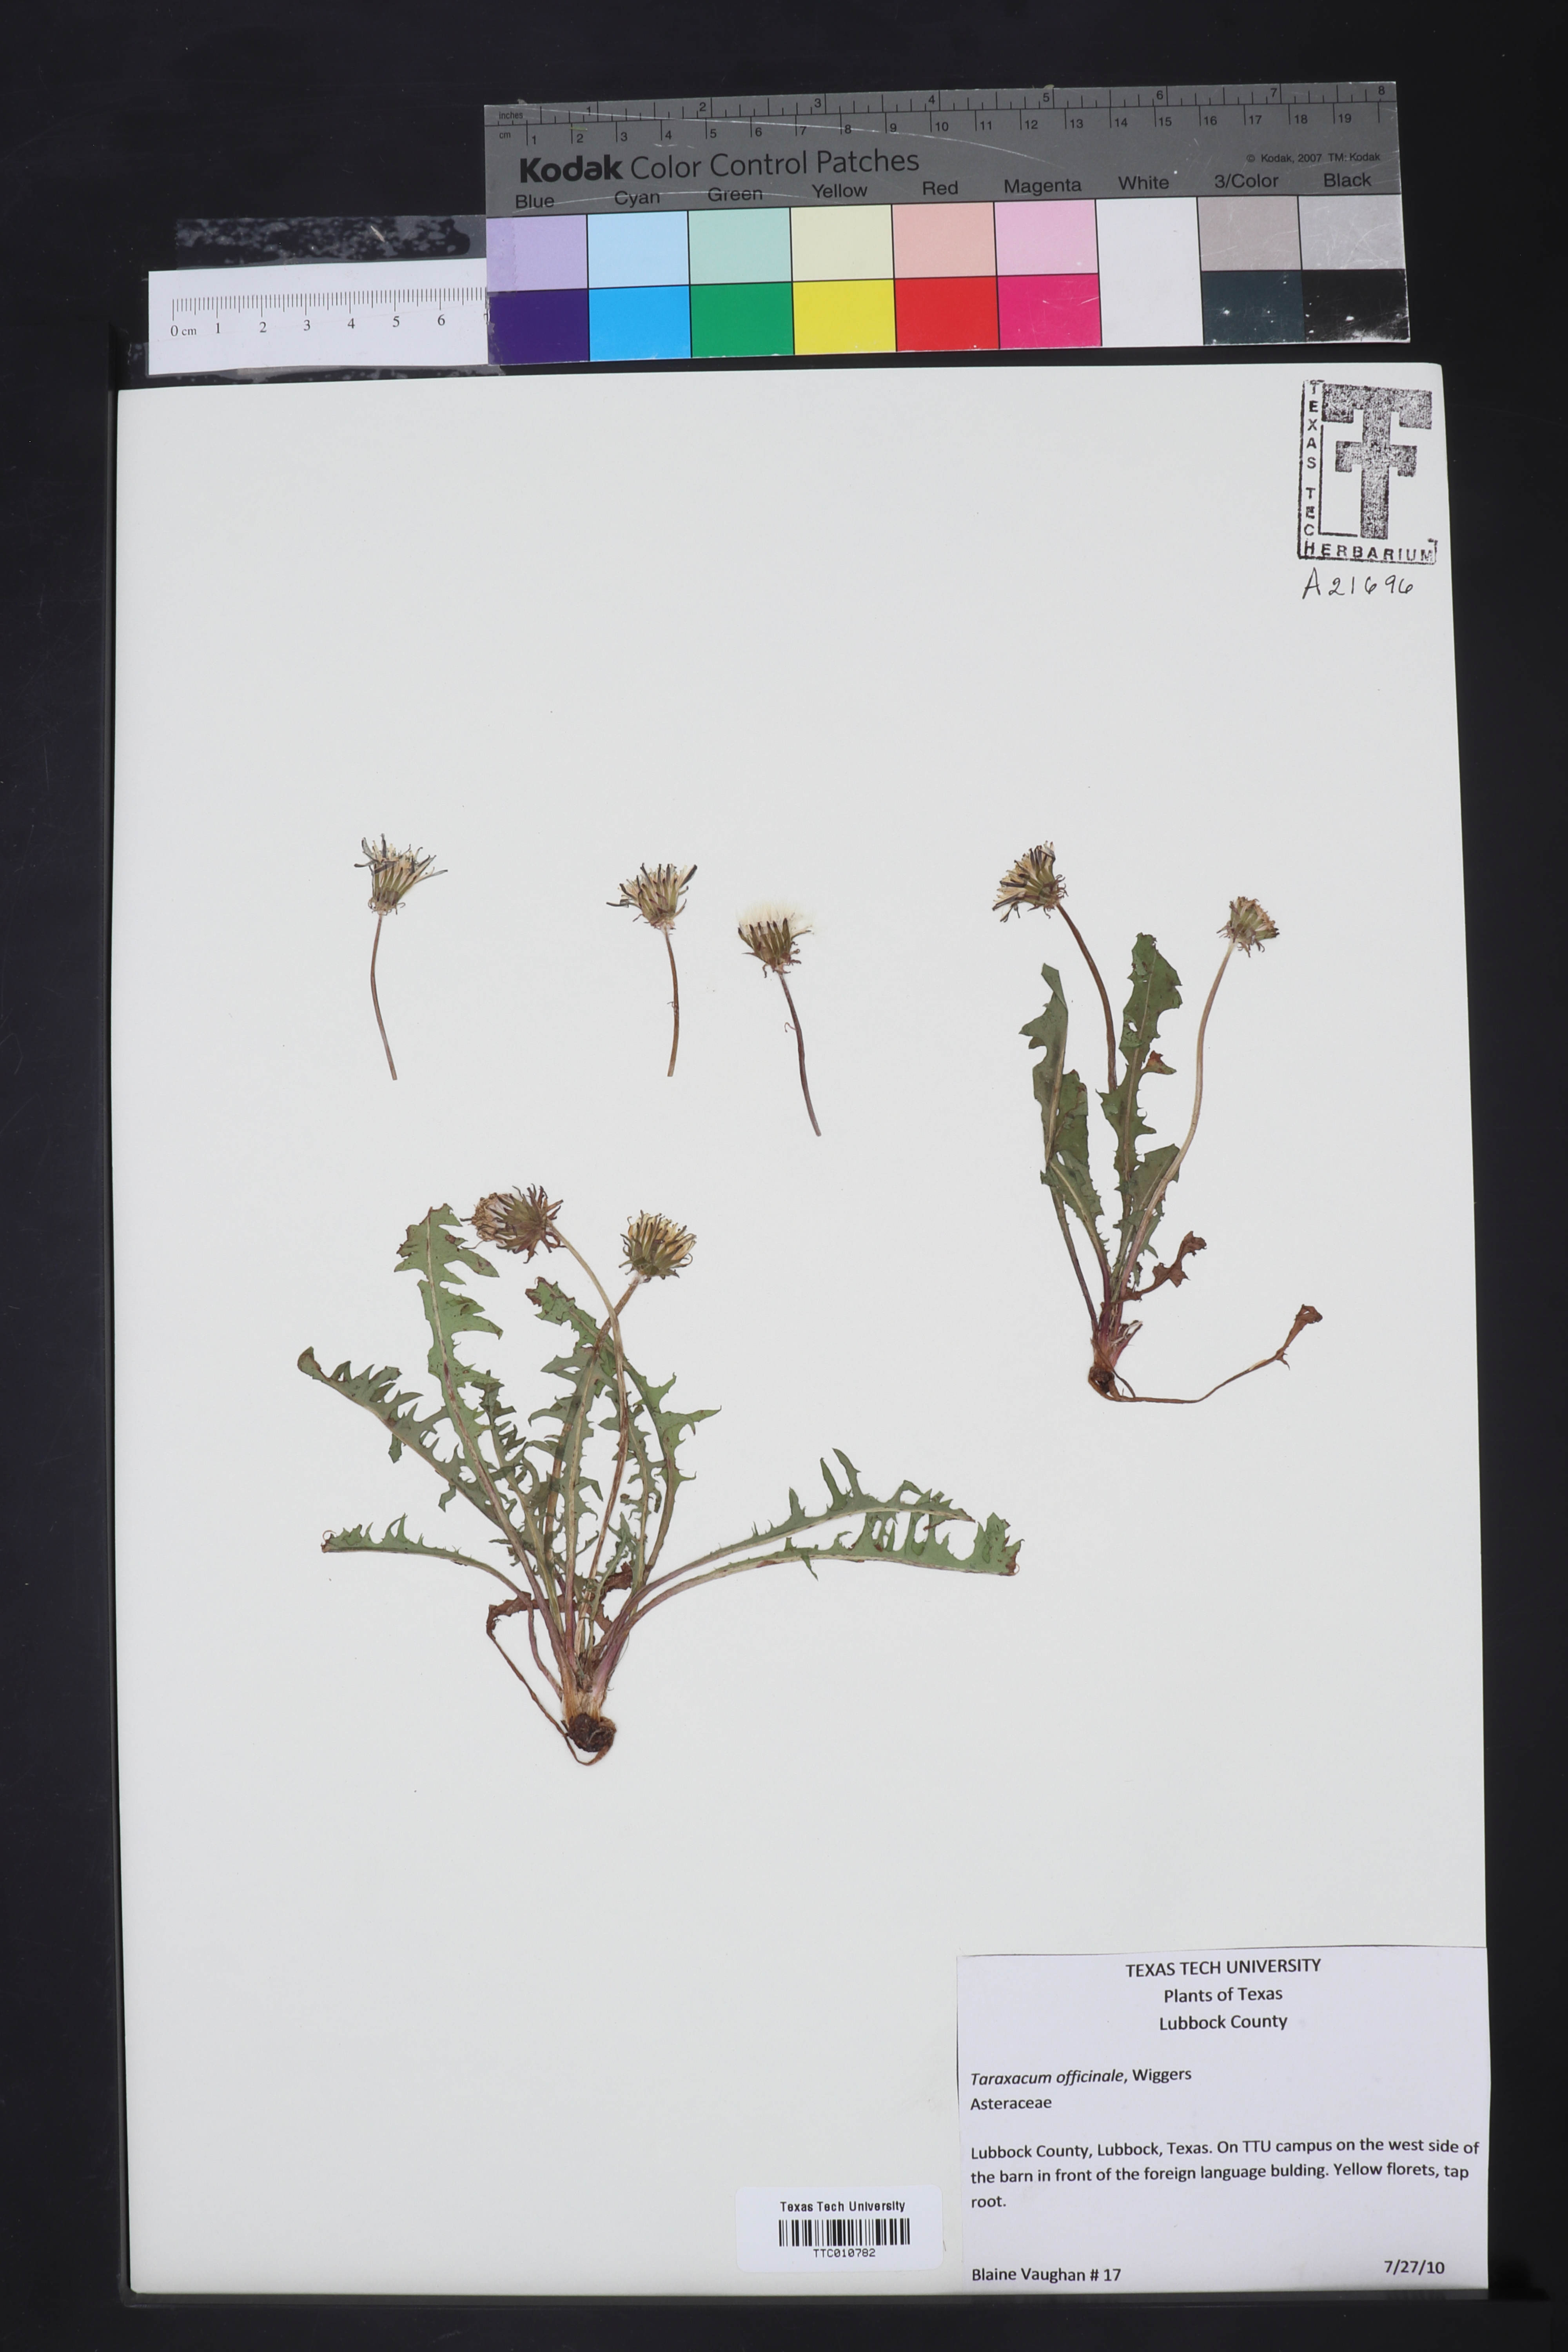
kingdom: Plantae
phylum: Tracheophyta
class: Magnoliopsida
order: Asterales
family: Asteraceae
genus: Taraxacum
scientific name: Taraxacum officinale
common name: Common dandelion
